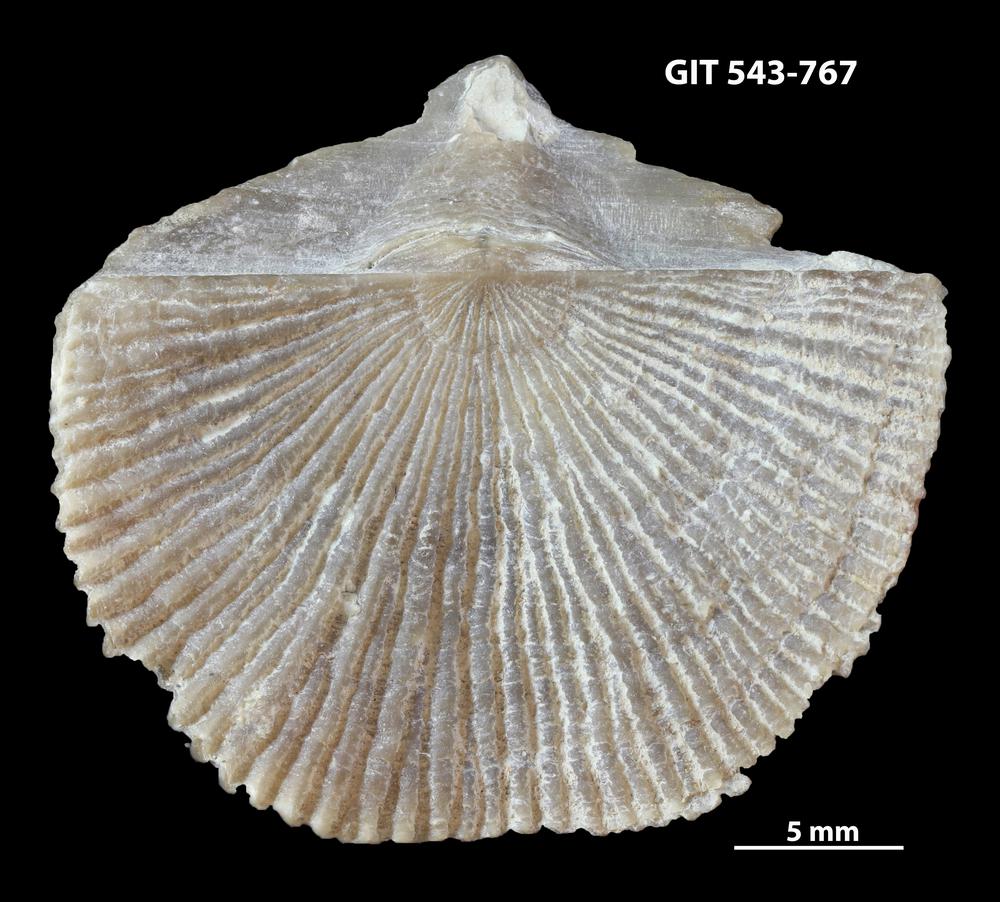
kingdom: Animalia
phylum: Brachiopoda
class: Rhynchonellata
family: Clitambonitidae
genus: Vellamo
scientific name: Vellamo wesenbergiensis
